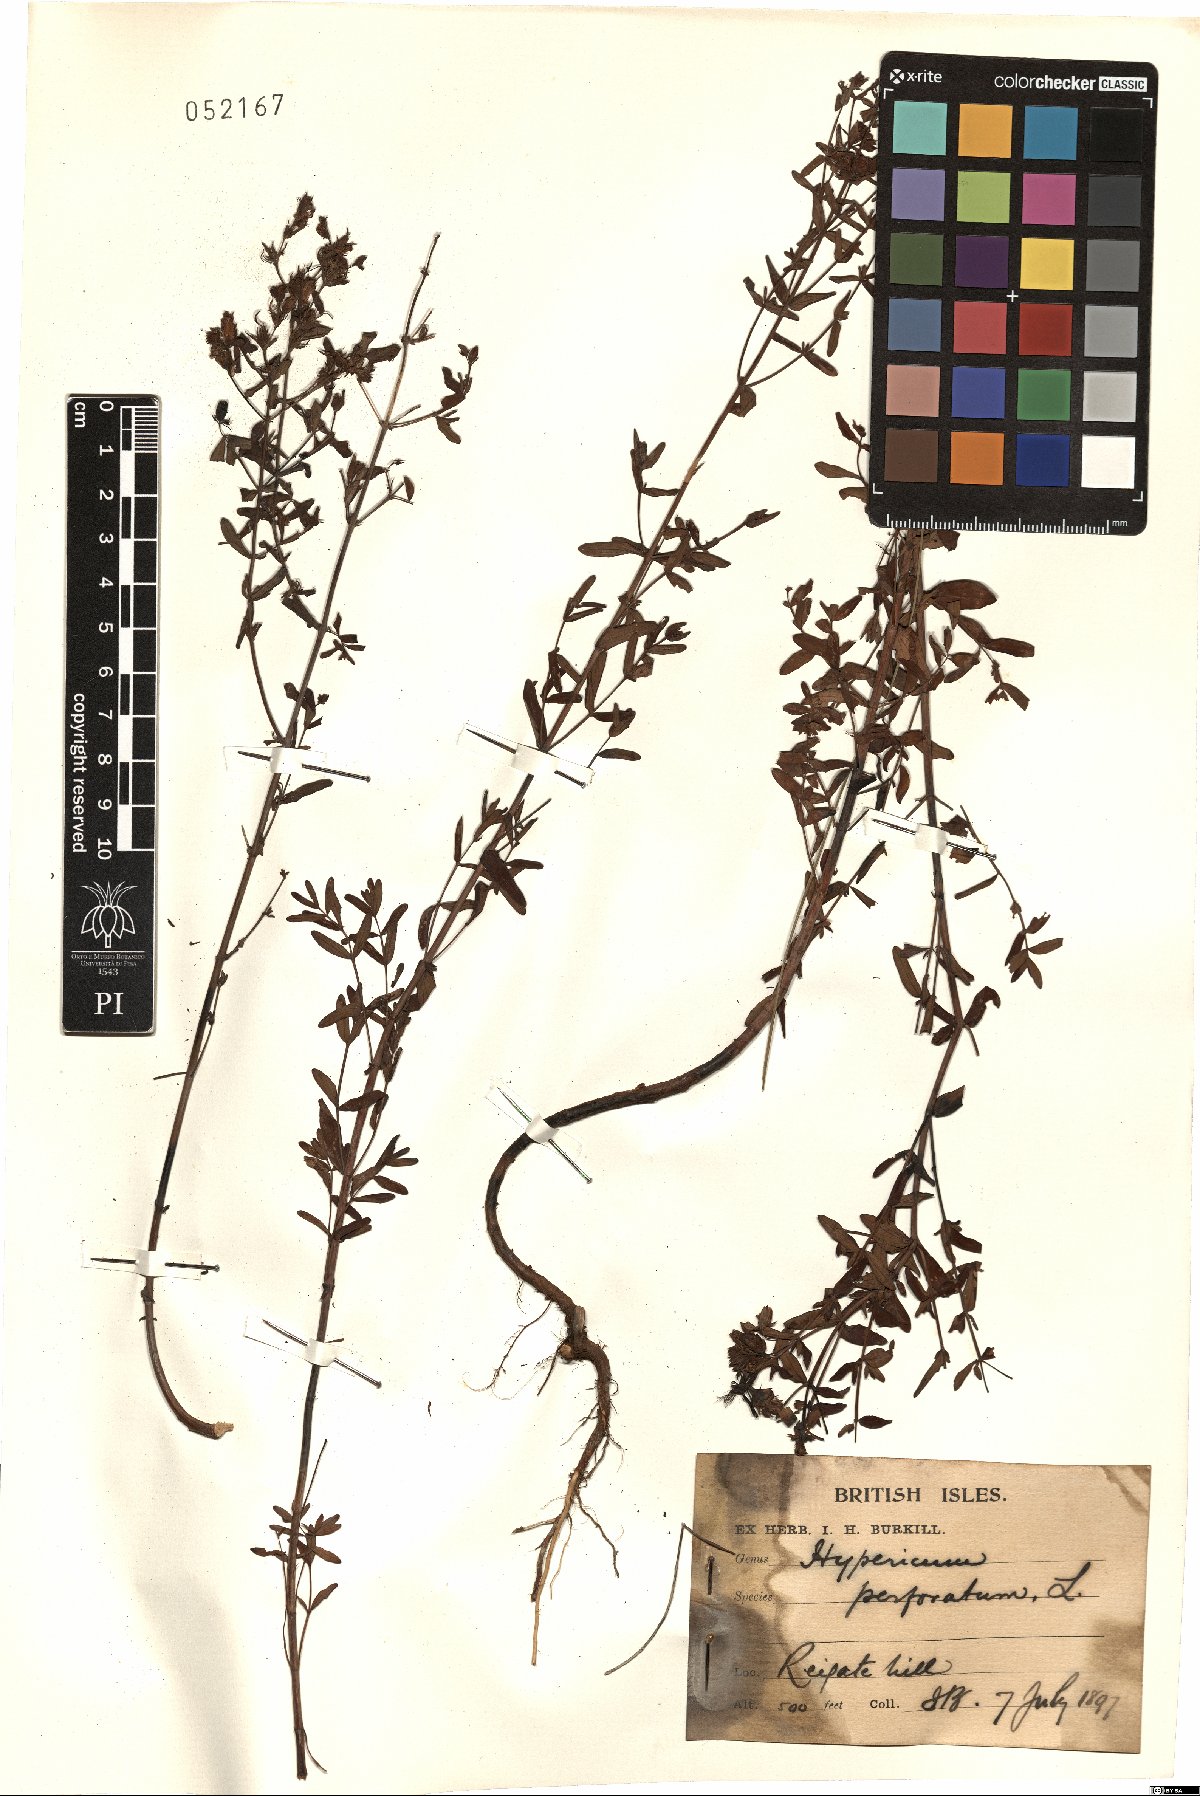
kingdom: Plantae
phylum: Tracheophyta
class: Magnoliopsida
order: Malpighiales
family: Hypericaceae
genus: Hypericum
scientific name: Hypericum perforatum
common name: Common st. johnswort
